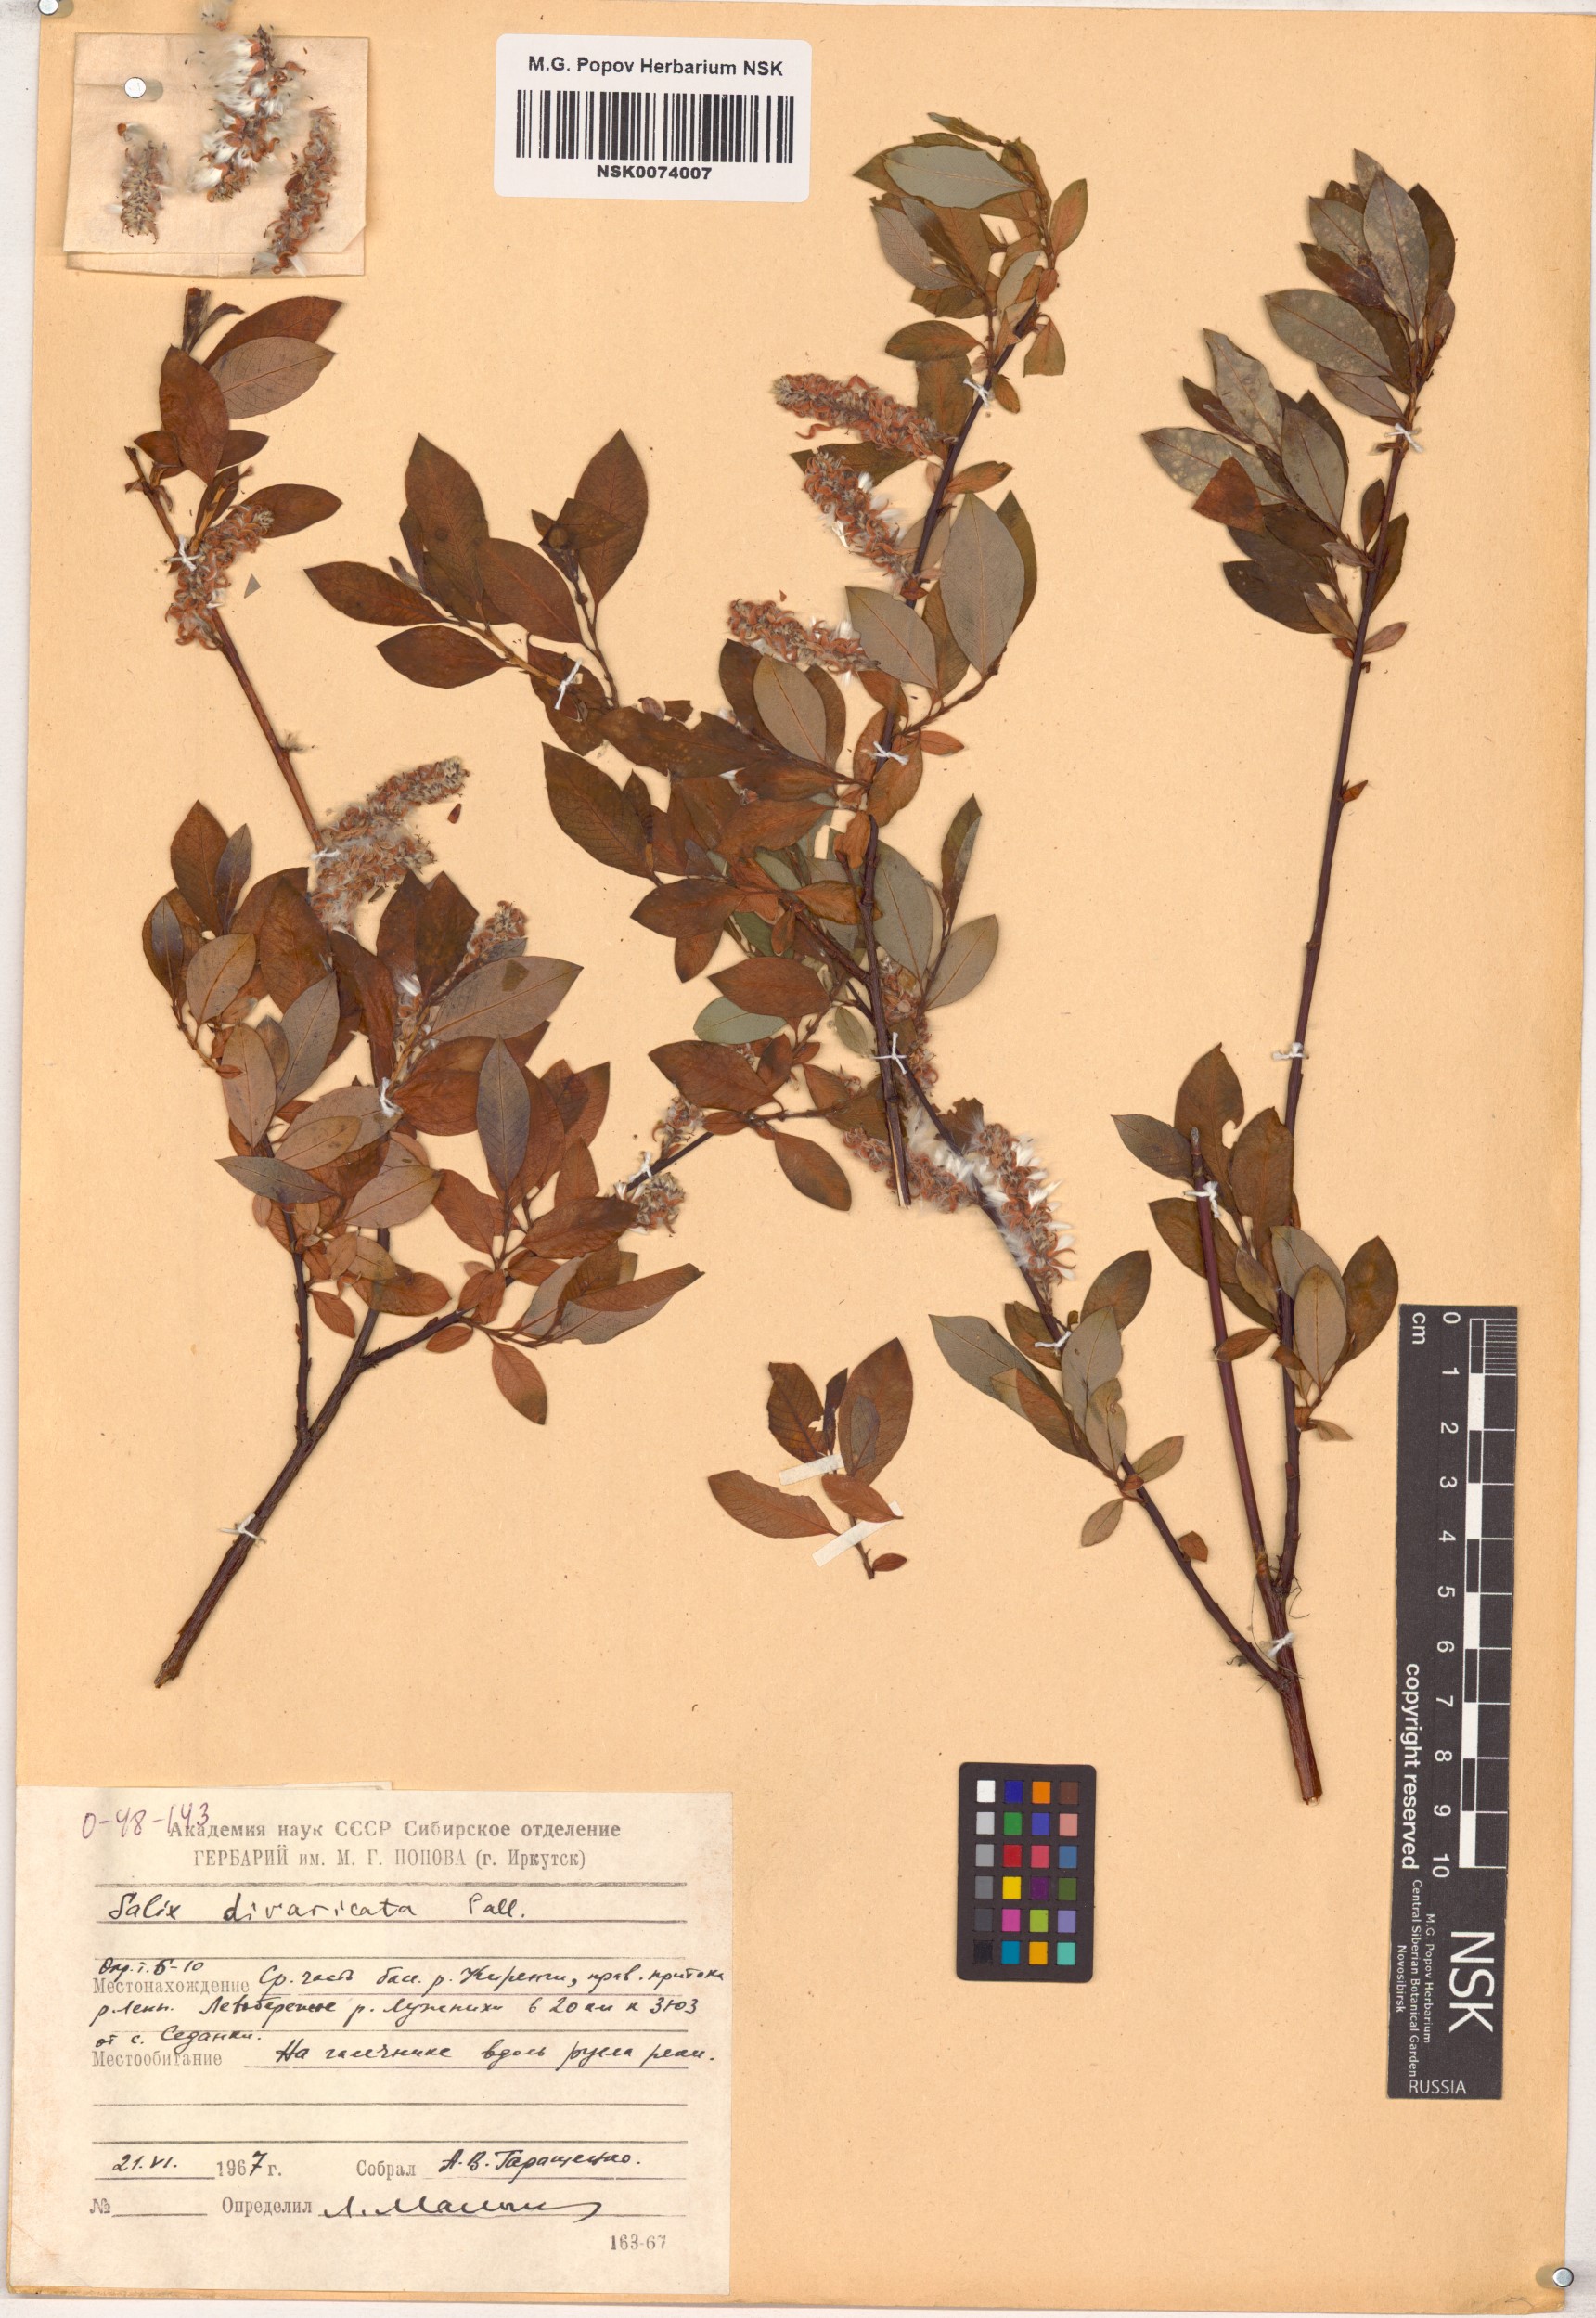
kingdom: Plantae
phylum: Tracheophyta
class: Magnoliopsida
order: Malpighiales
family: Salicaceae
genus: Salix
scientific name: Salix divaricata
